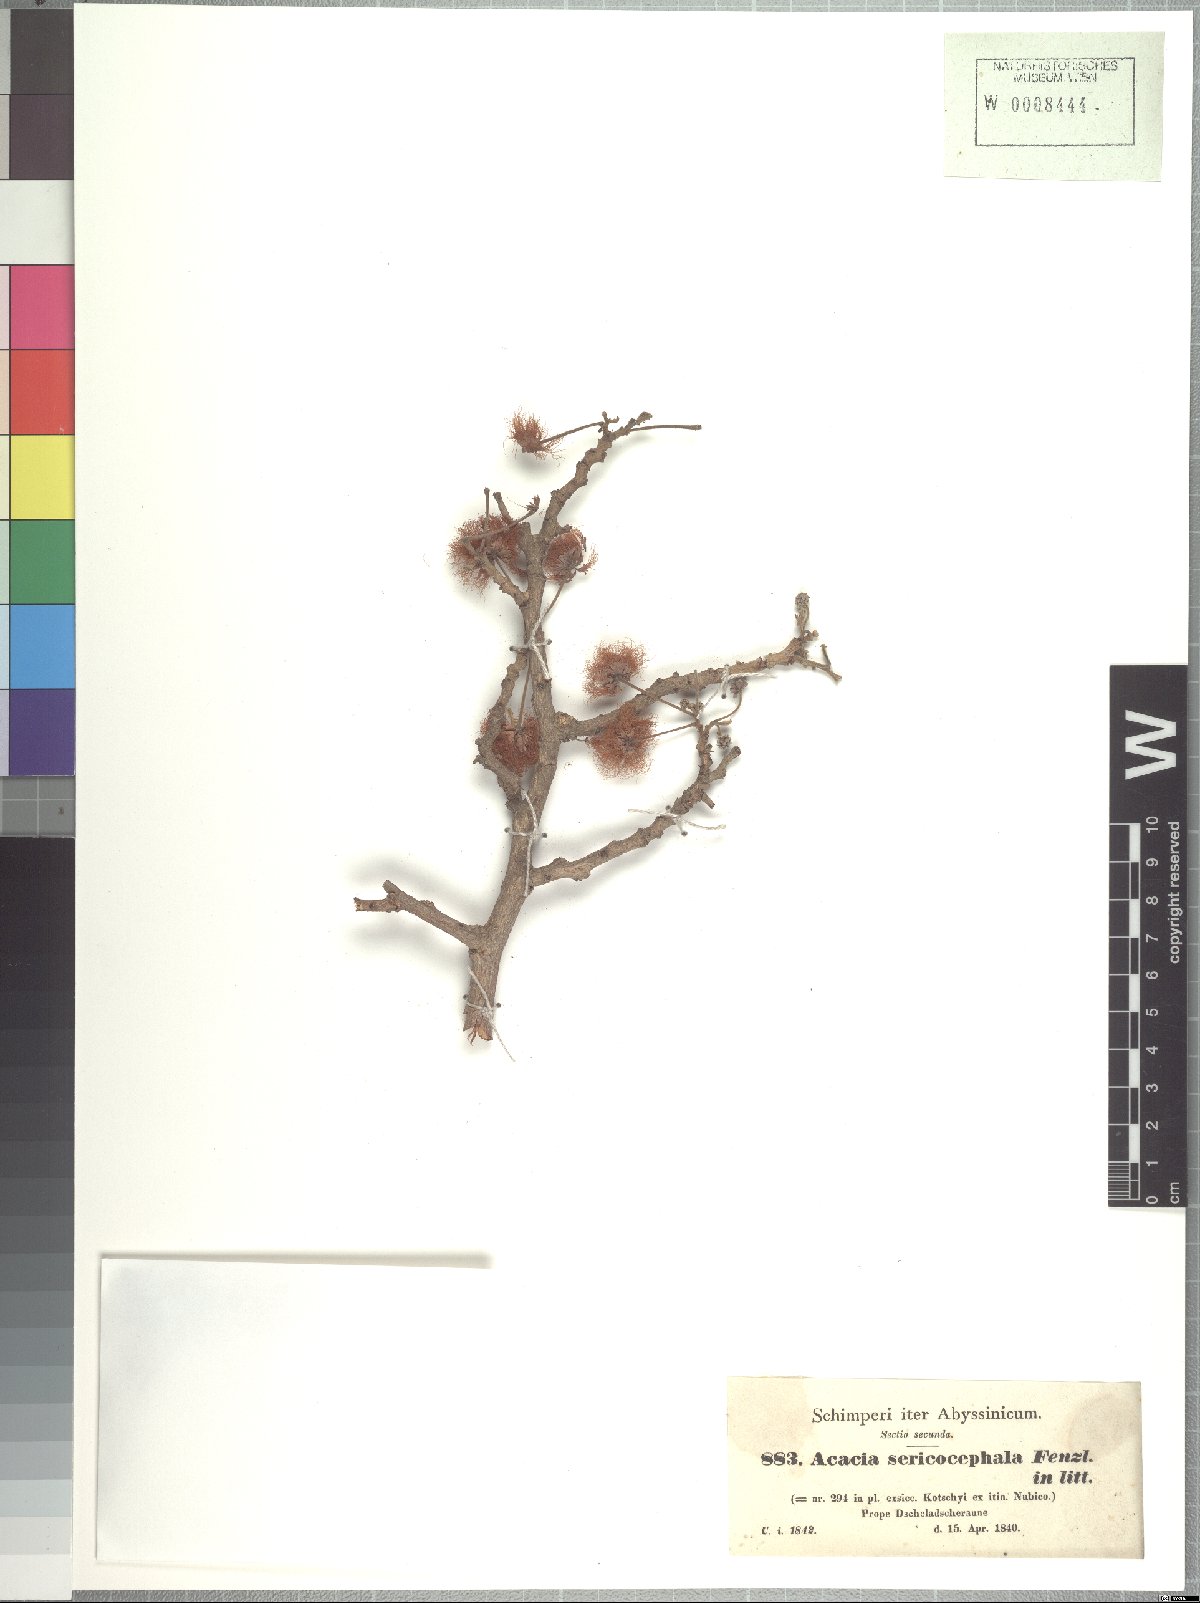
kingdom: Plantae
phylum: Tracheophyta
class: Magnoliopsida
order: Fabales
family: Fabaceae
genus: Albizia
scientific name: Albizia amara
